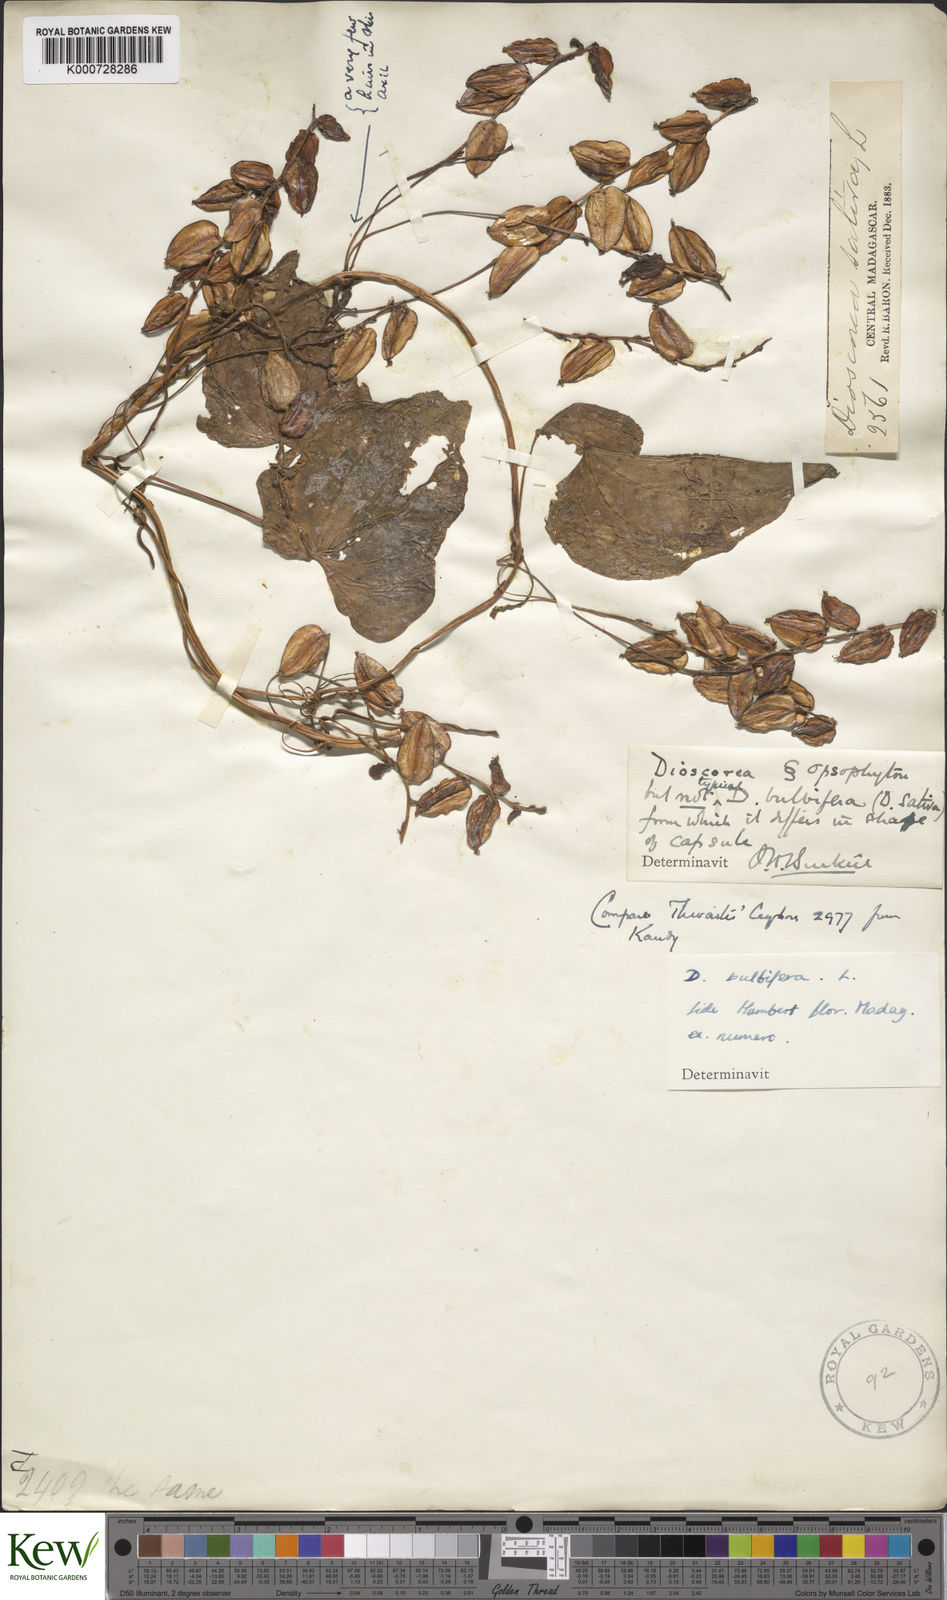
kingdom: Plantae
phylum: Tracheophyta
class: Liliopsida
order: Dioscoreales
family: Dioscoreaceae
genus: Dioscorea
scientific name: Dioscorea bulbifera
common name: Air yam
